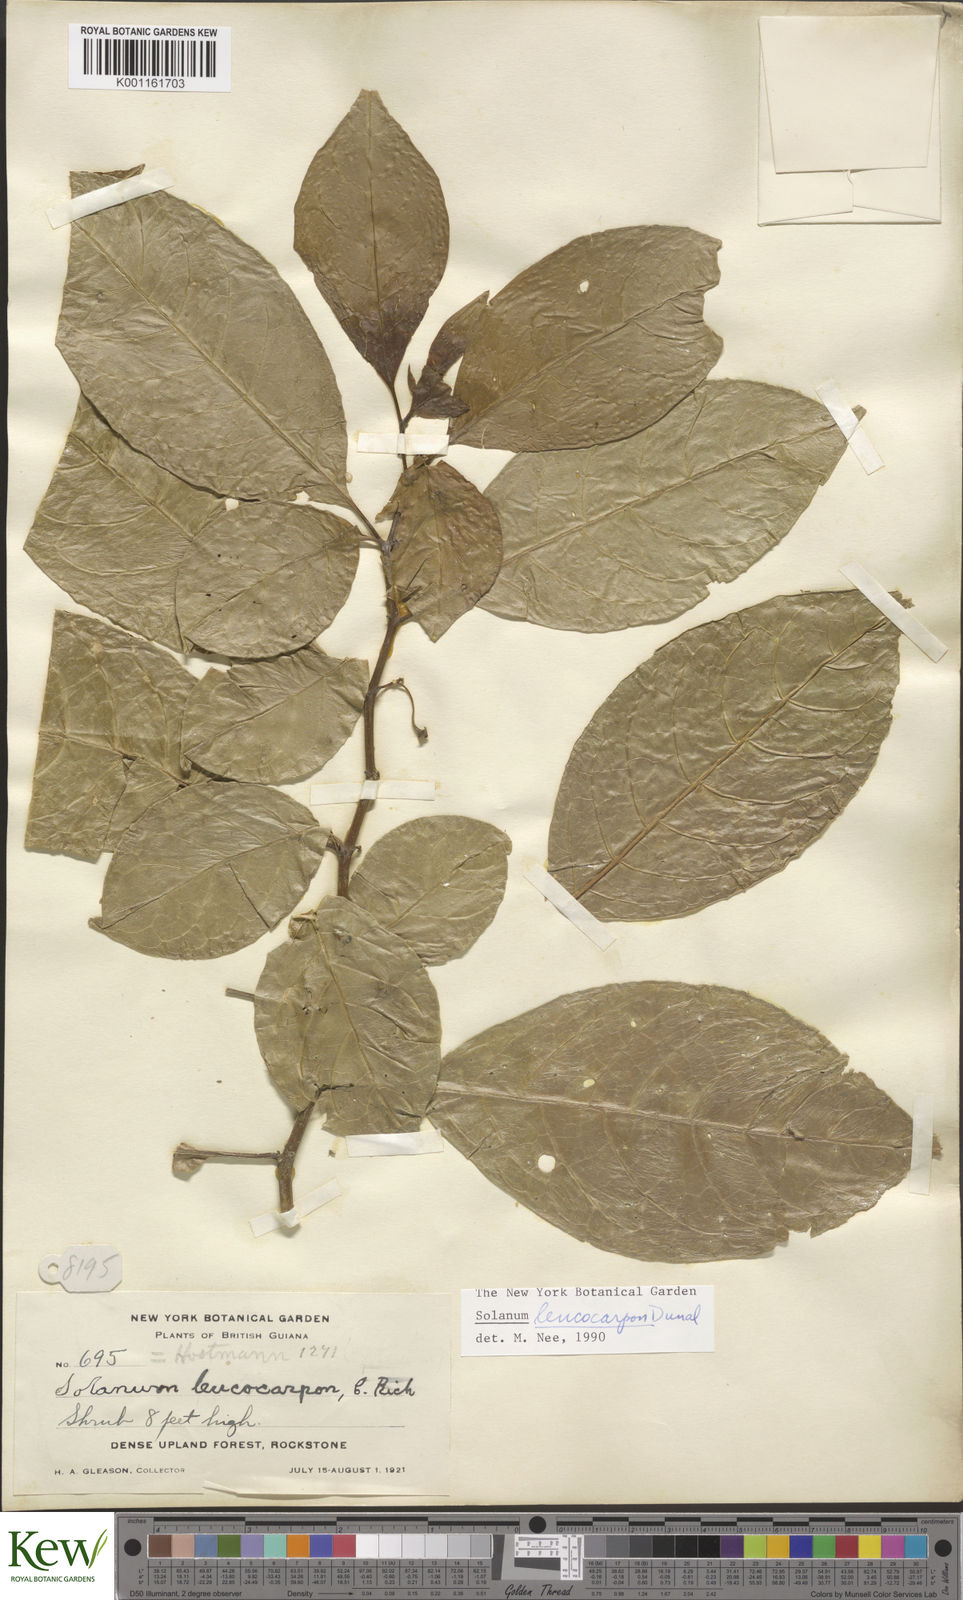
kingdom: Plantae
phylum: Tracheophyta
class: Magnoliopsida
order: Solanales
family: Solanaceae
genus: Solanum
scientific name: Solanum leucocarpon
